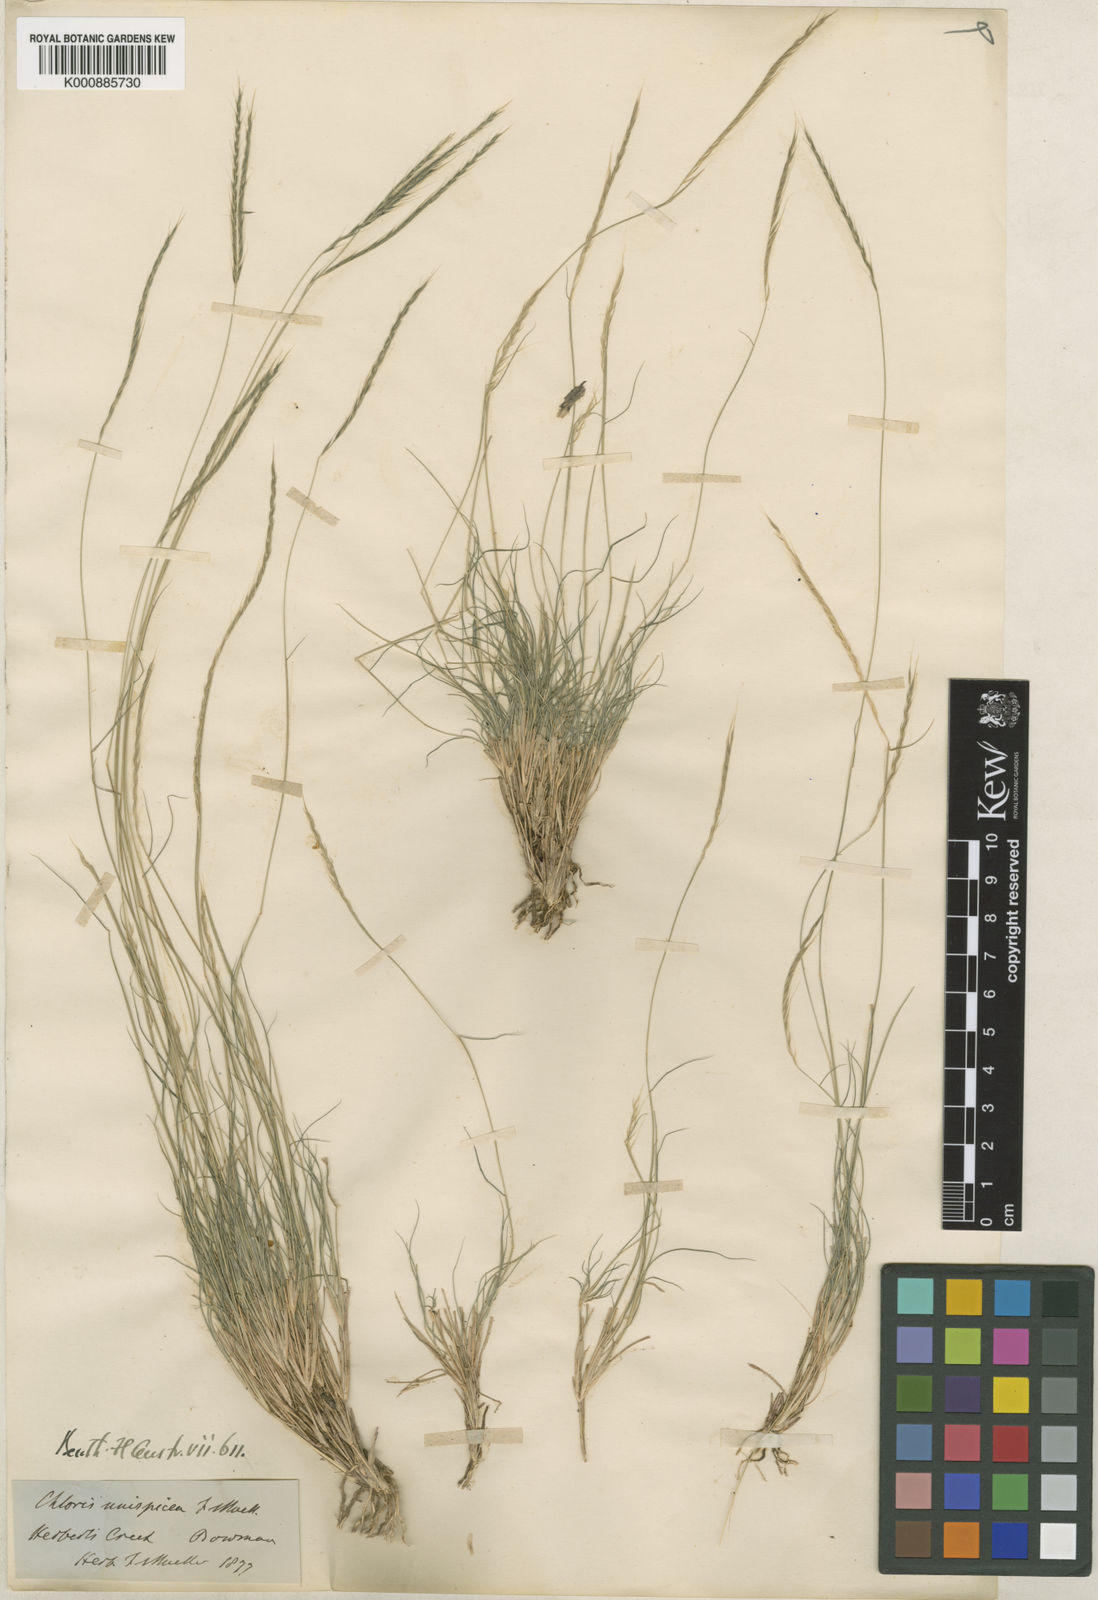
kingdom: Plantae
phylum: Tracheophyta
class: Liliopsida
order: Poales
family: Poaceae
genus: Enteropogon
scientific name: Enteropogon unispiceus
